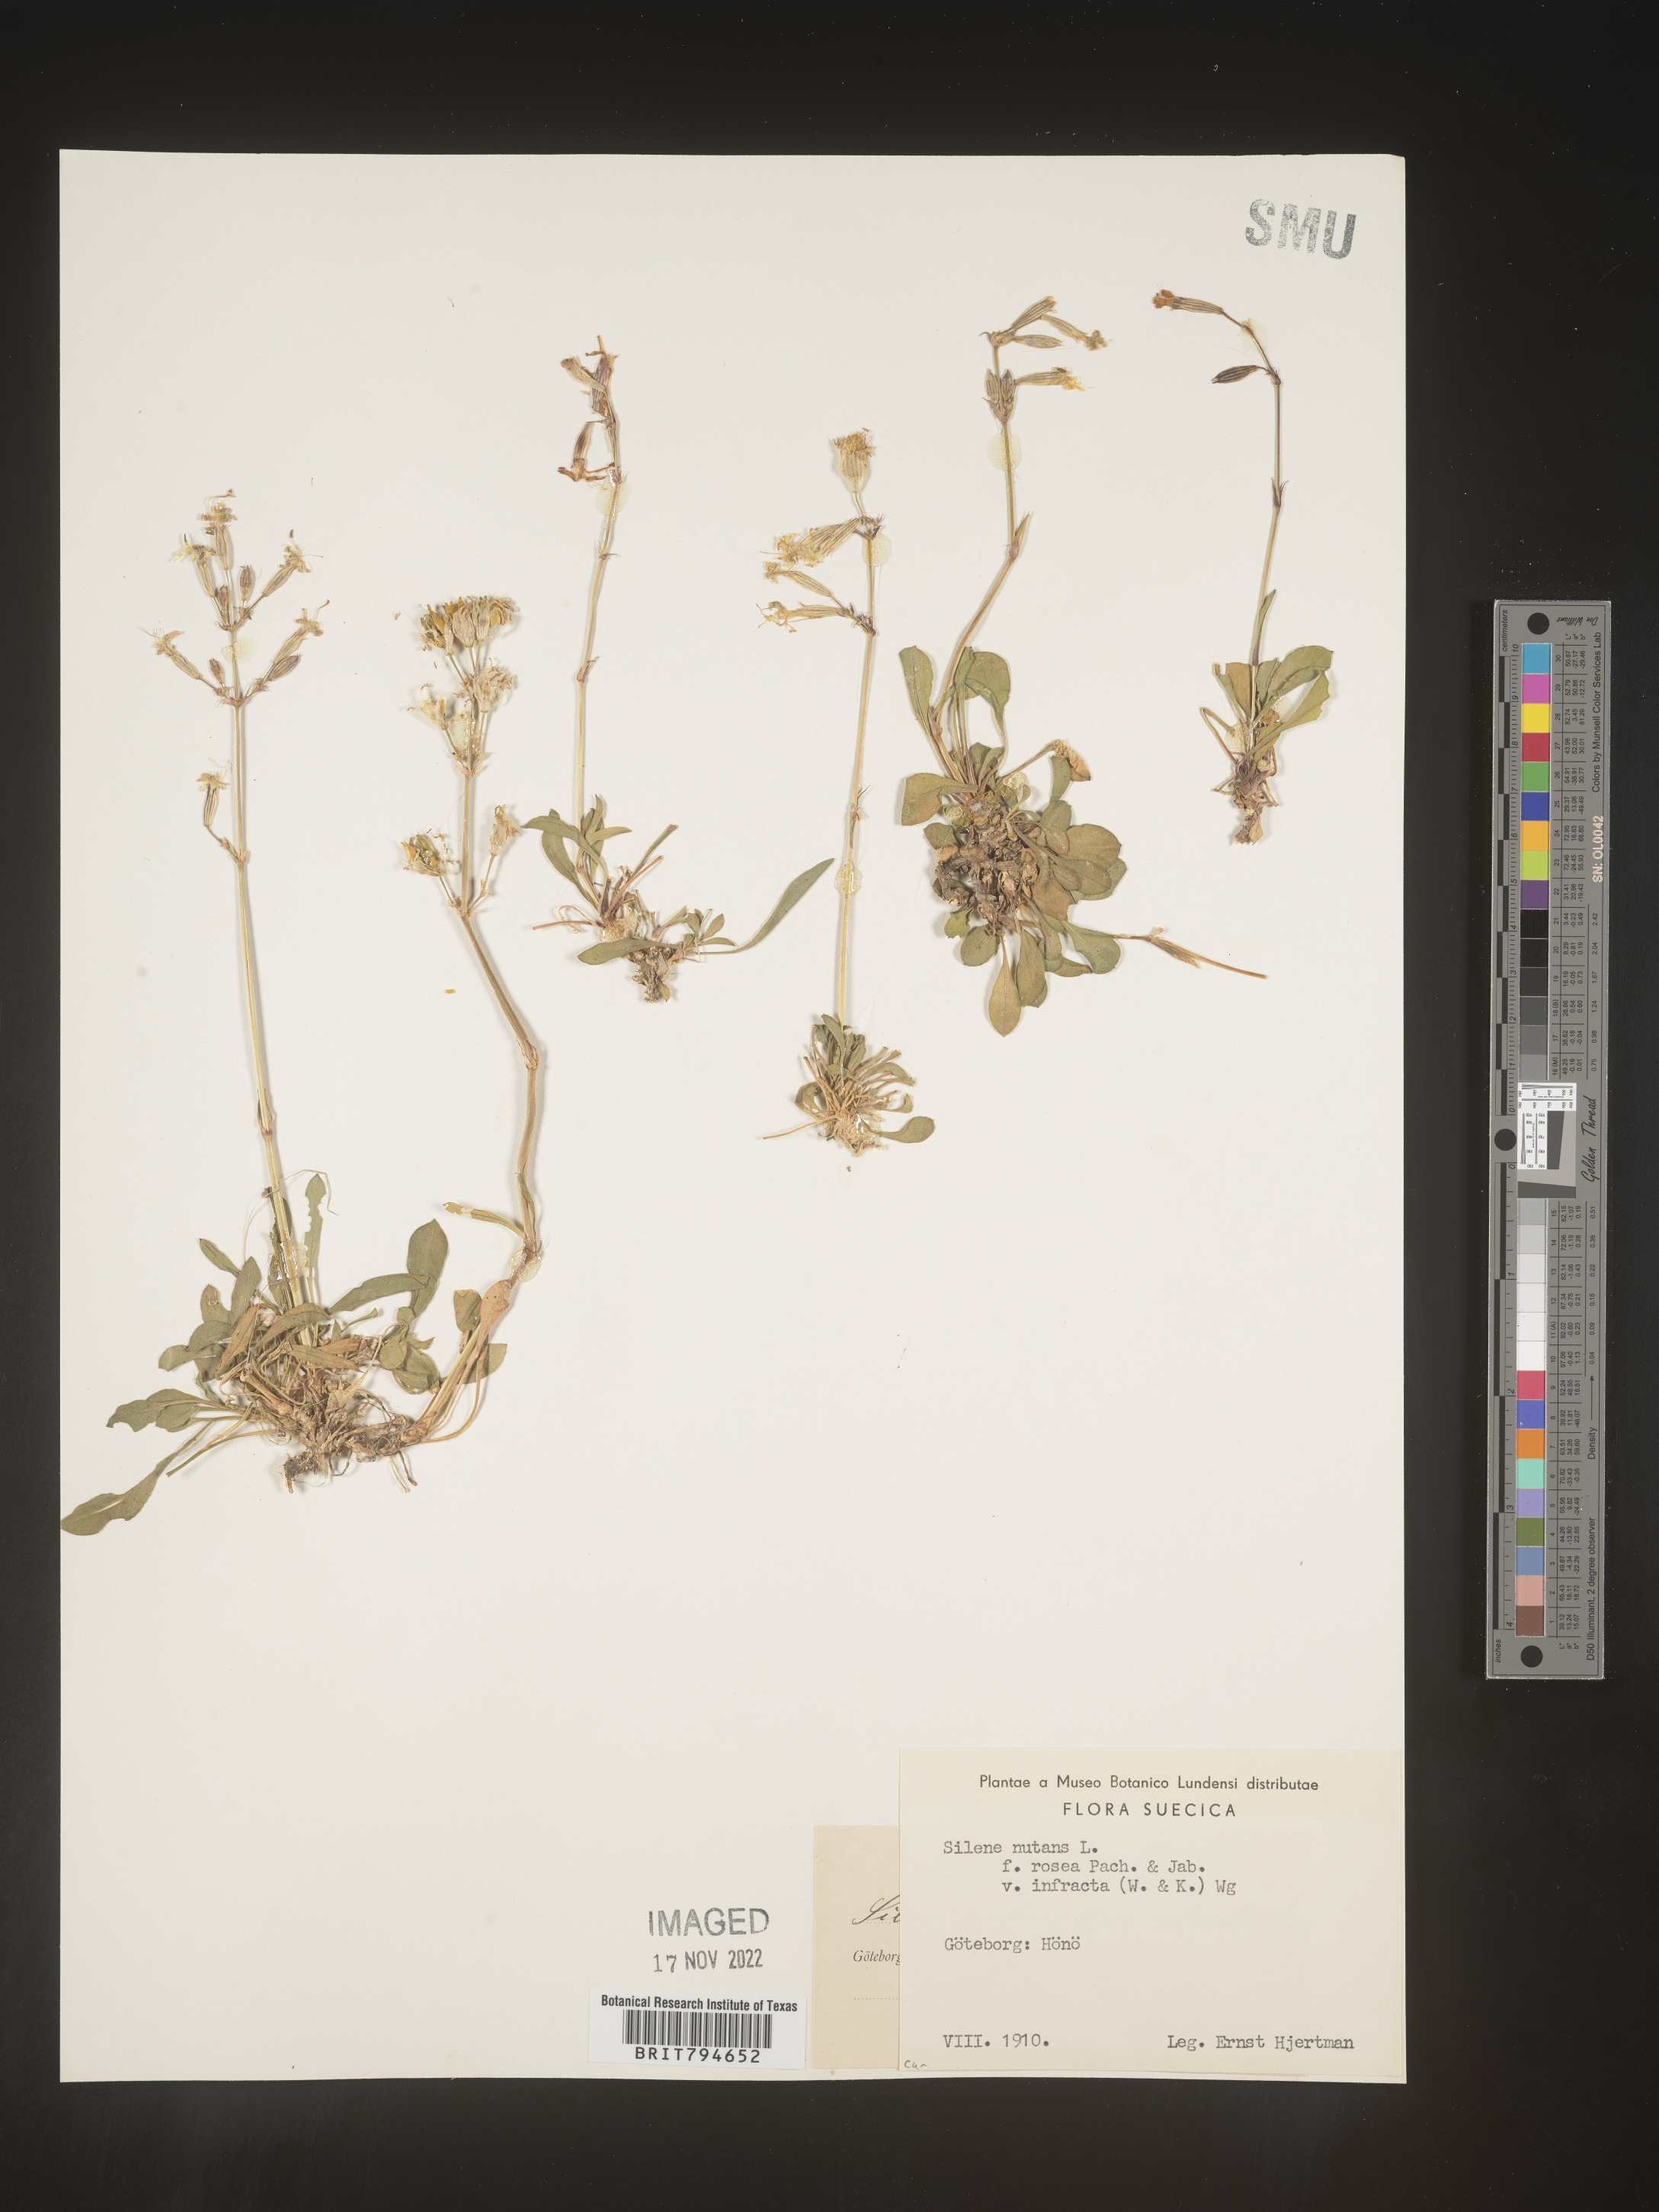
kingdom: Plantae
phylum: Tracheophyta
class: Magnoliopsida
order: Caryophyllales
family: Caryophyllaceae
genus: Silene
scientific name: Silene nutans
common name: Nottingham catchfly
